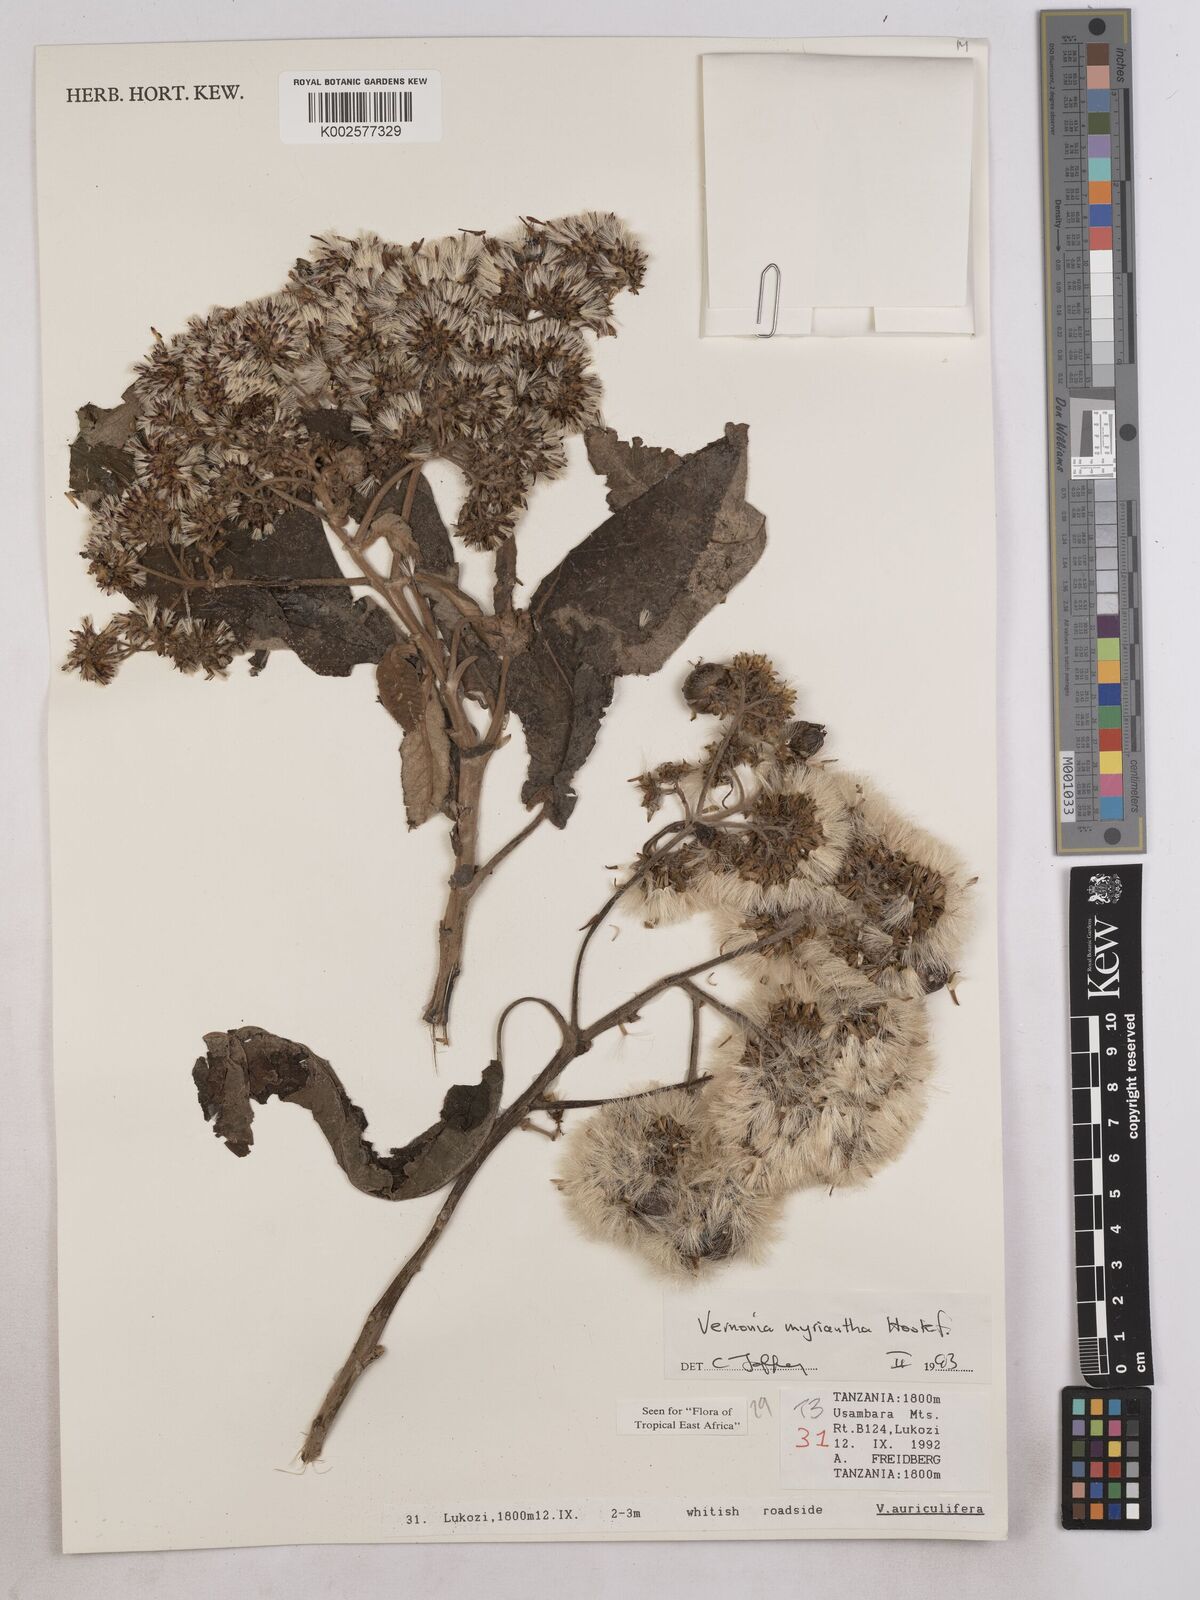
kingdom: Plantae
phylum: Tracheophyta
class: Magnoliopsida
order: Asterales
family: Asteraceae
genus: Gymnanthemum
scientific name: Gymnanthemum myrianthum
